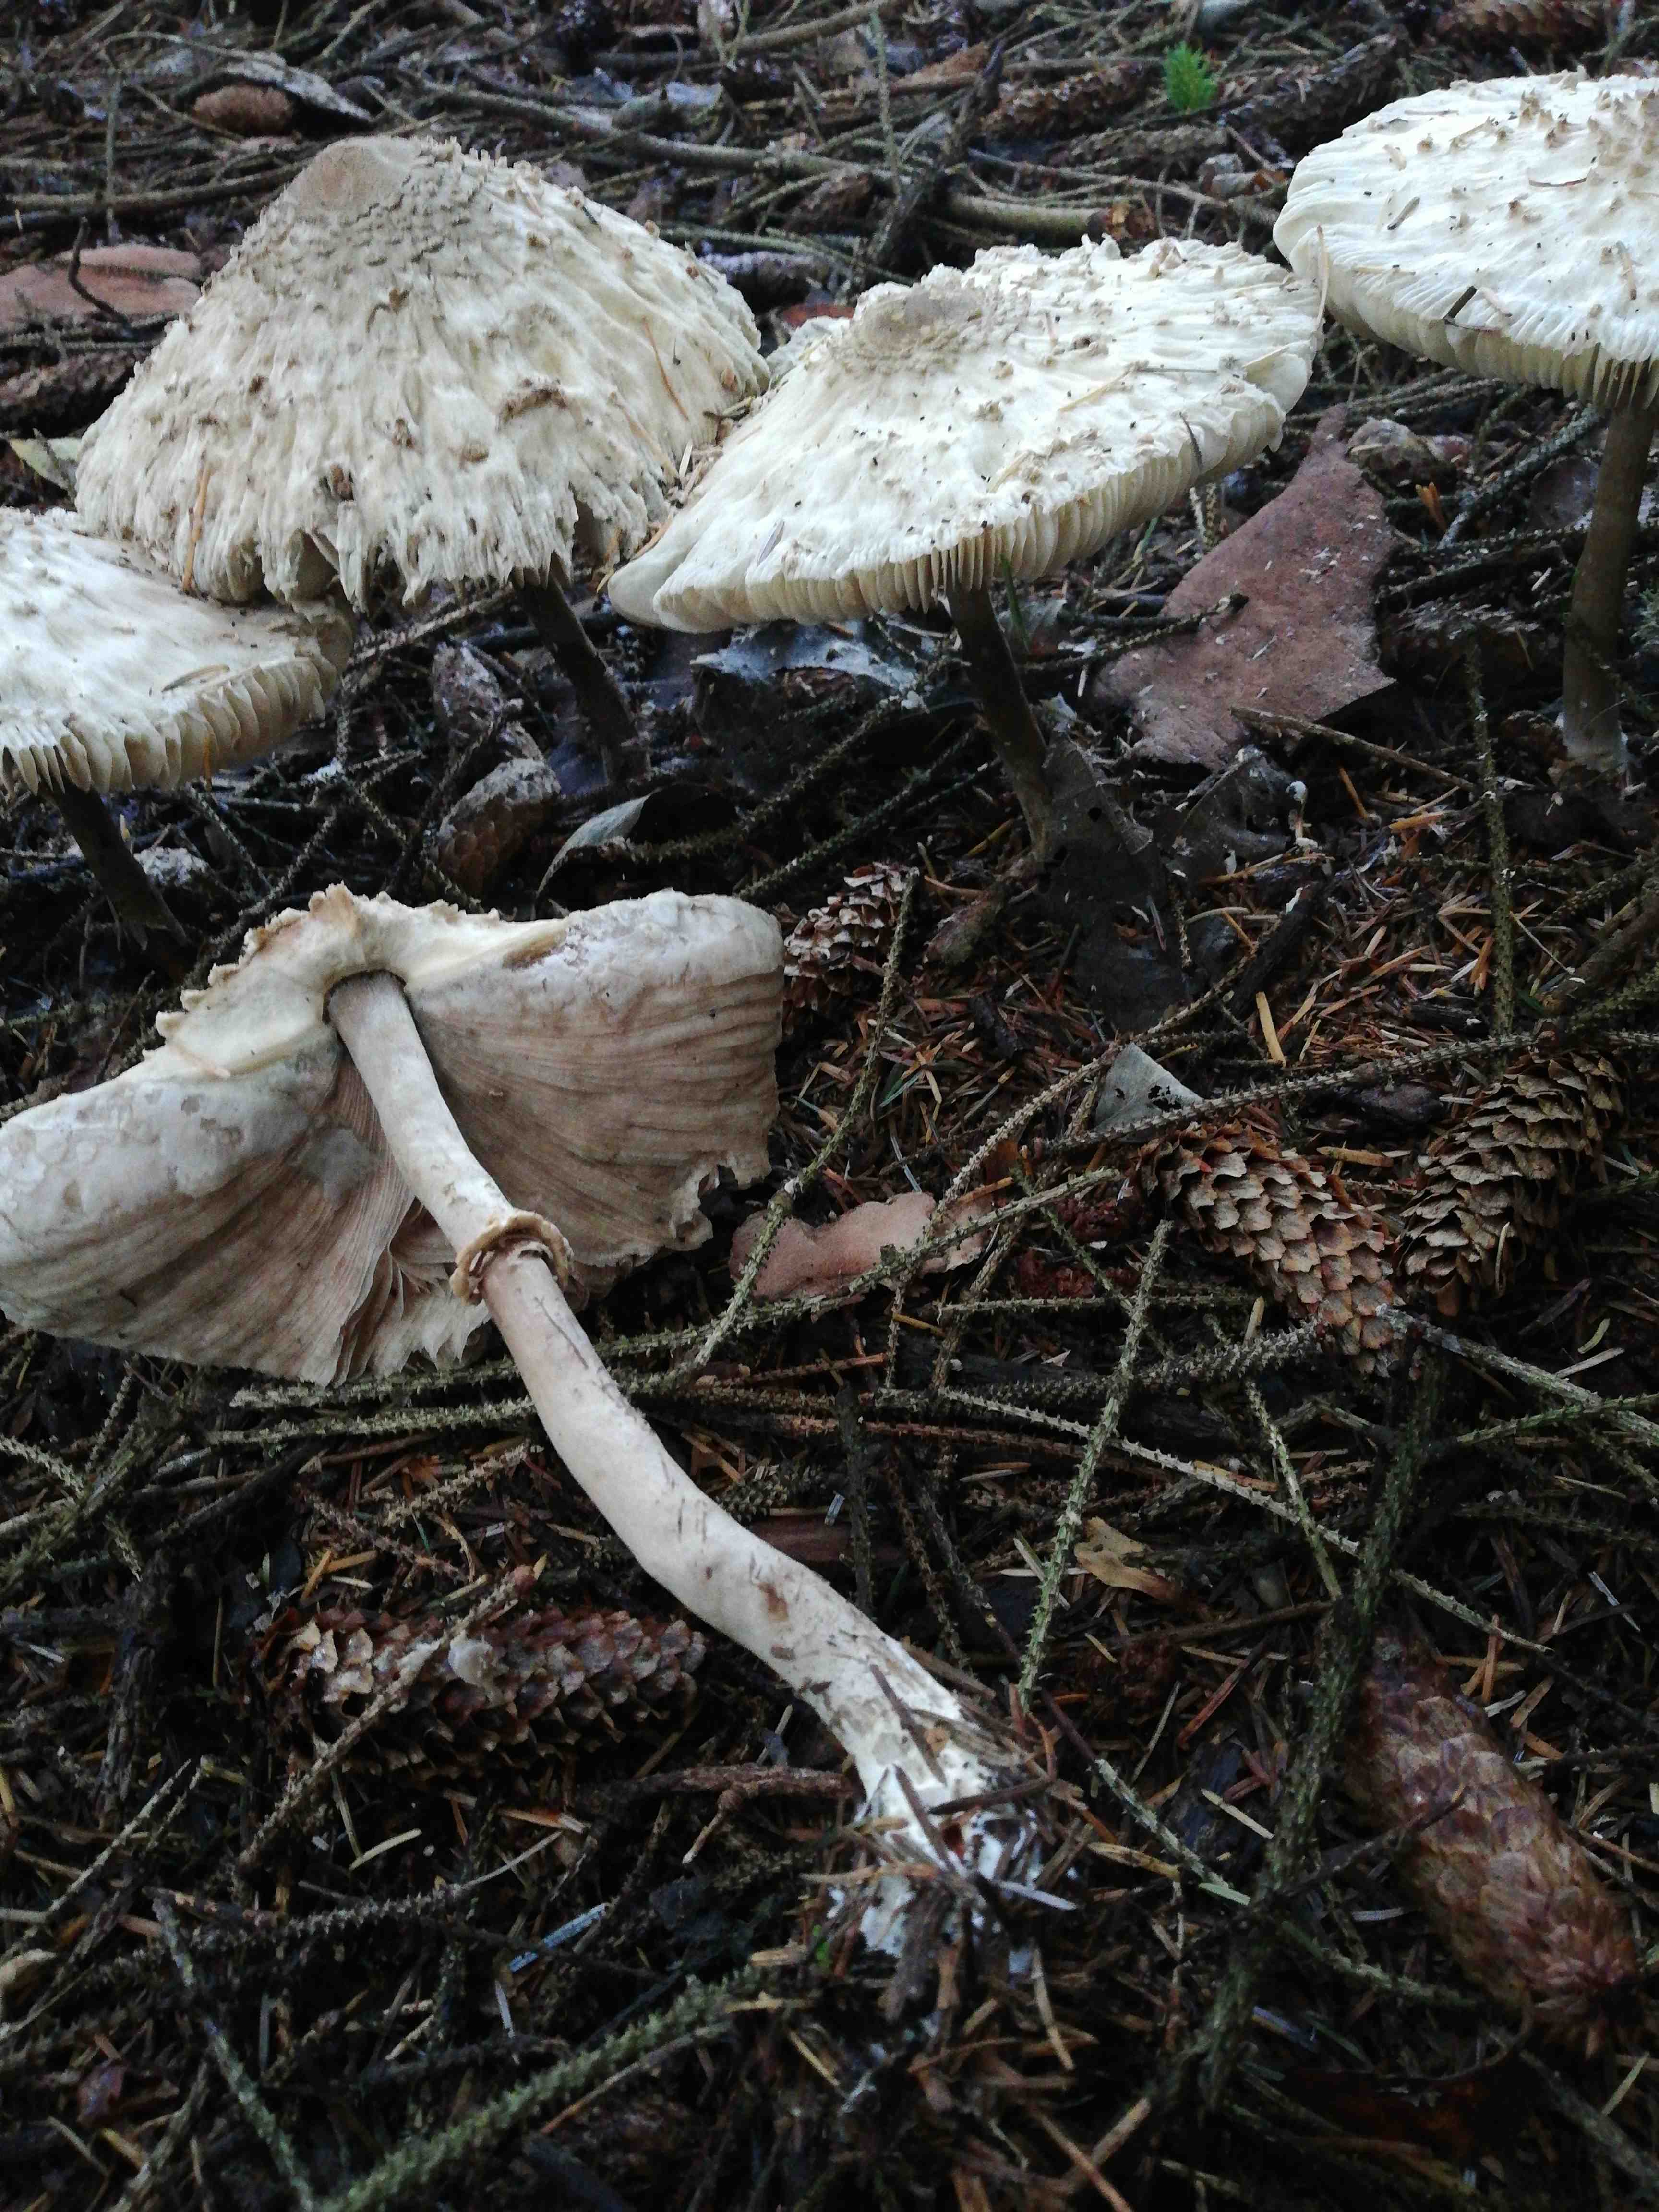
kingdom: Fungi
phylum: Basidiomycota
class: Agaricomycetes
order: Agaricales
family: Agaricaceae
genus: Chlorophyllum
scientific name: Chlorophyllum olivieri
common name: almindelig rabarberhat
